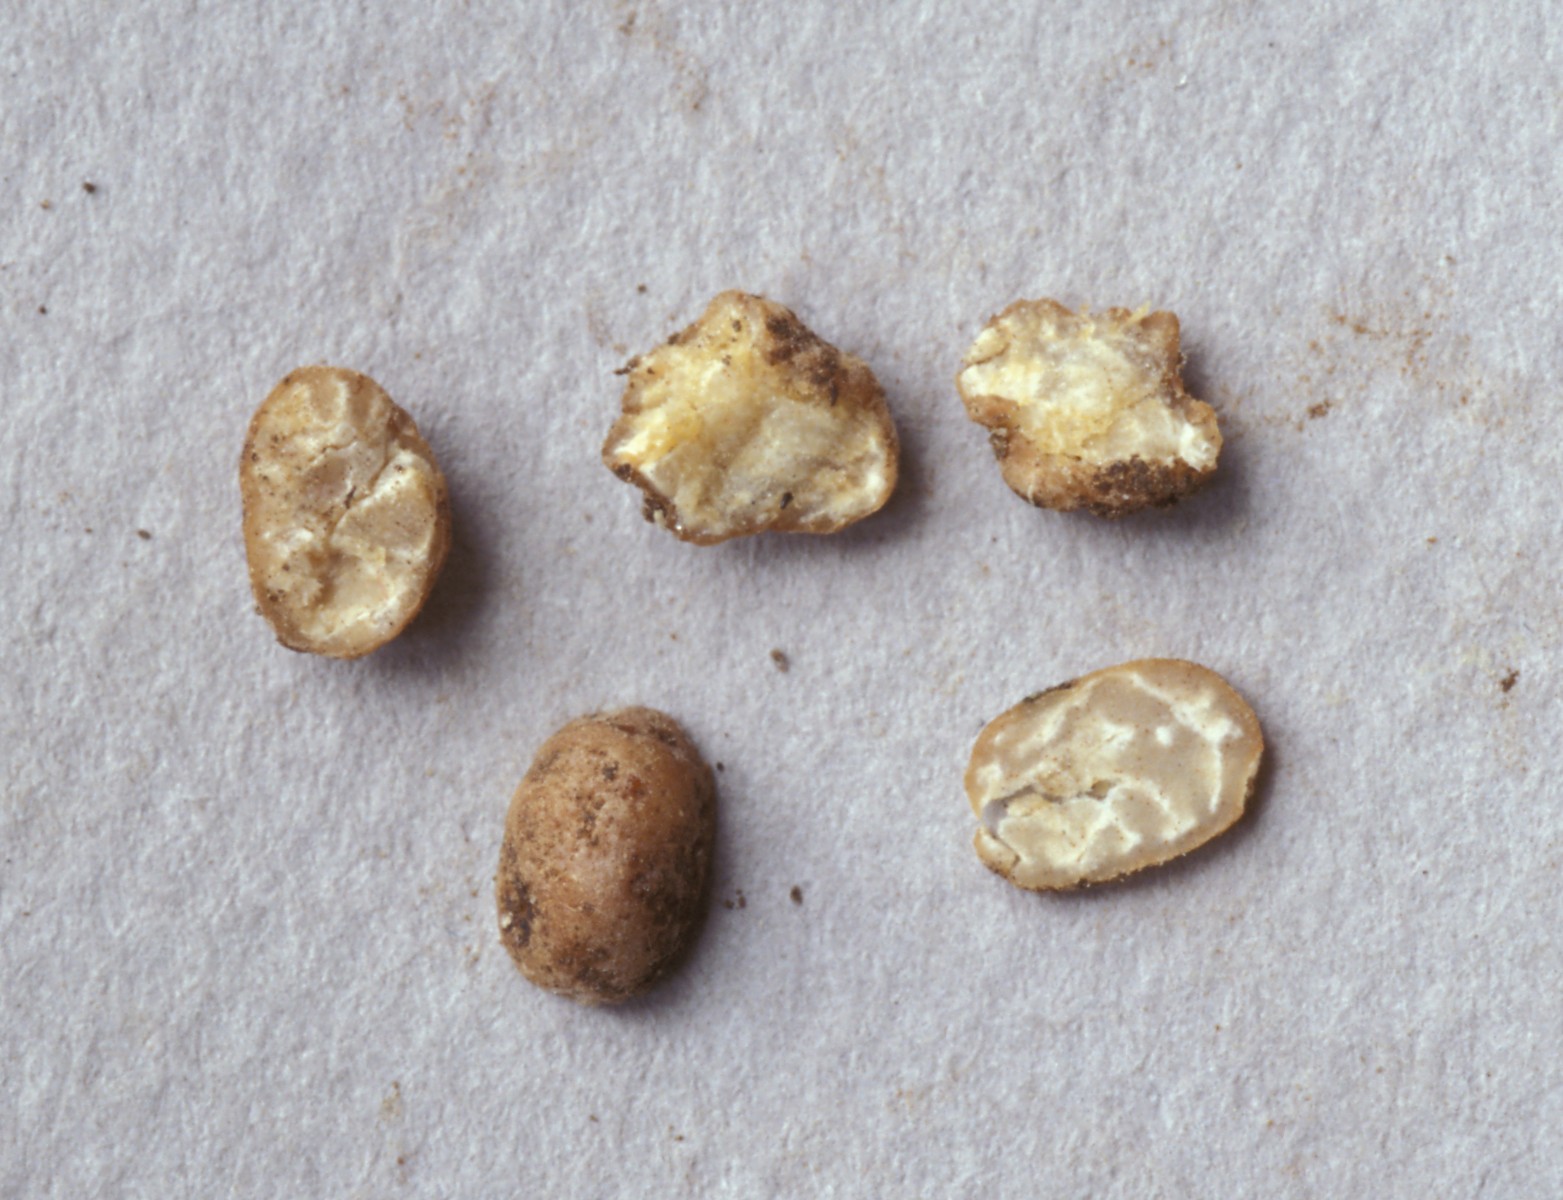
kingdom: Fungi
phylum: Ascomycota
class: Pezizomycetes
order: Pezizales
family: Tuberaceae
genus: Tuber
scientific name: Tuber borchii
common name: Borchs trøffel
